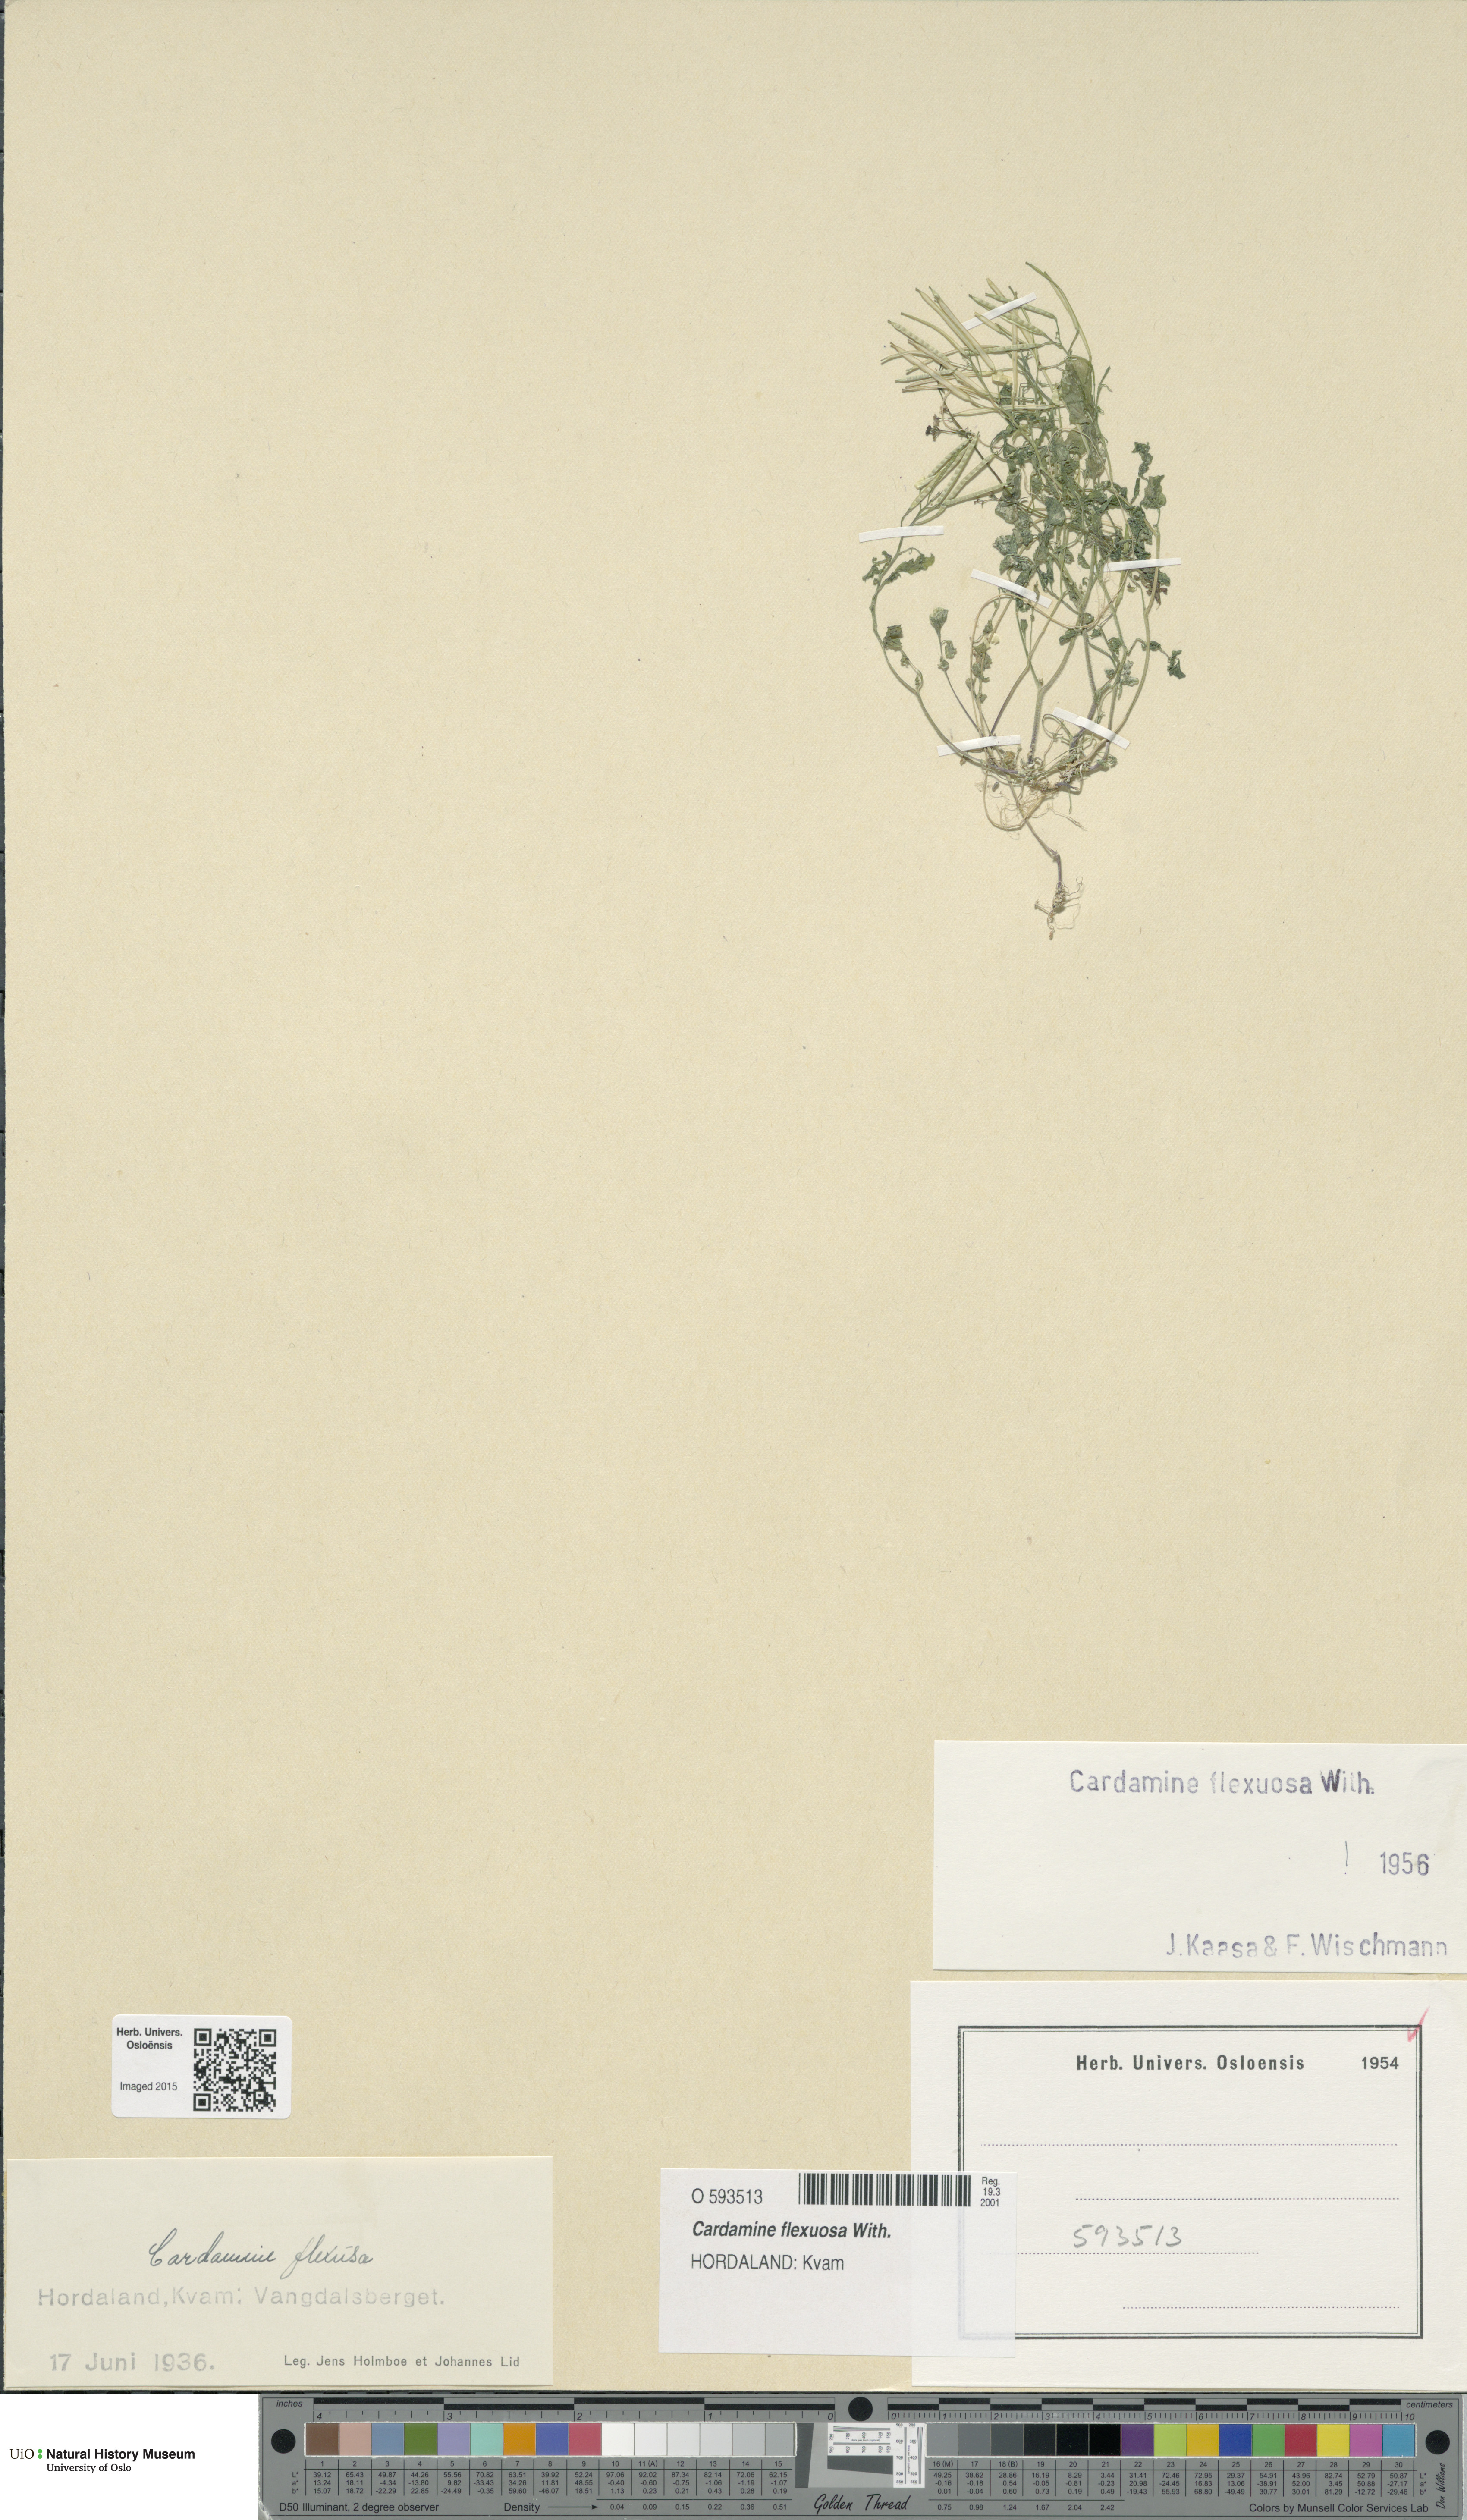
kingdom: Plantae
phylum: Tracheophyta
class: Magnoliopsida
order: Brassicales
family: Brassicaceae
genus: Cardamine
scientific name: Cardamine flexuosa
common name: Woodland bittercress
